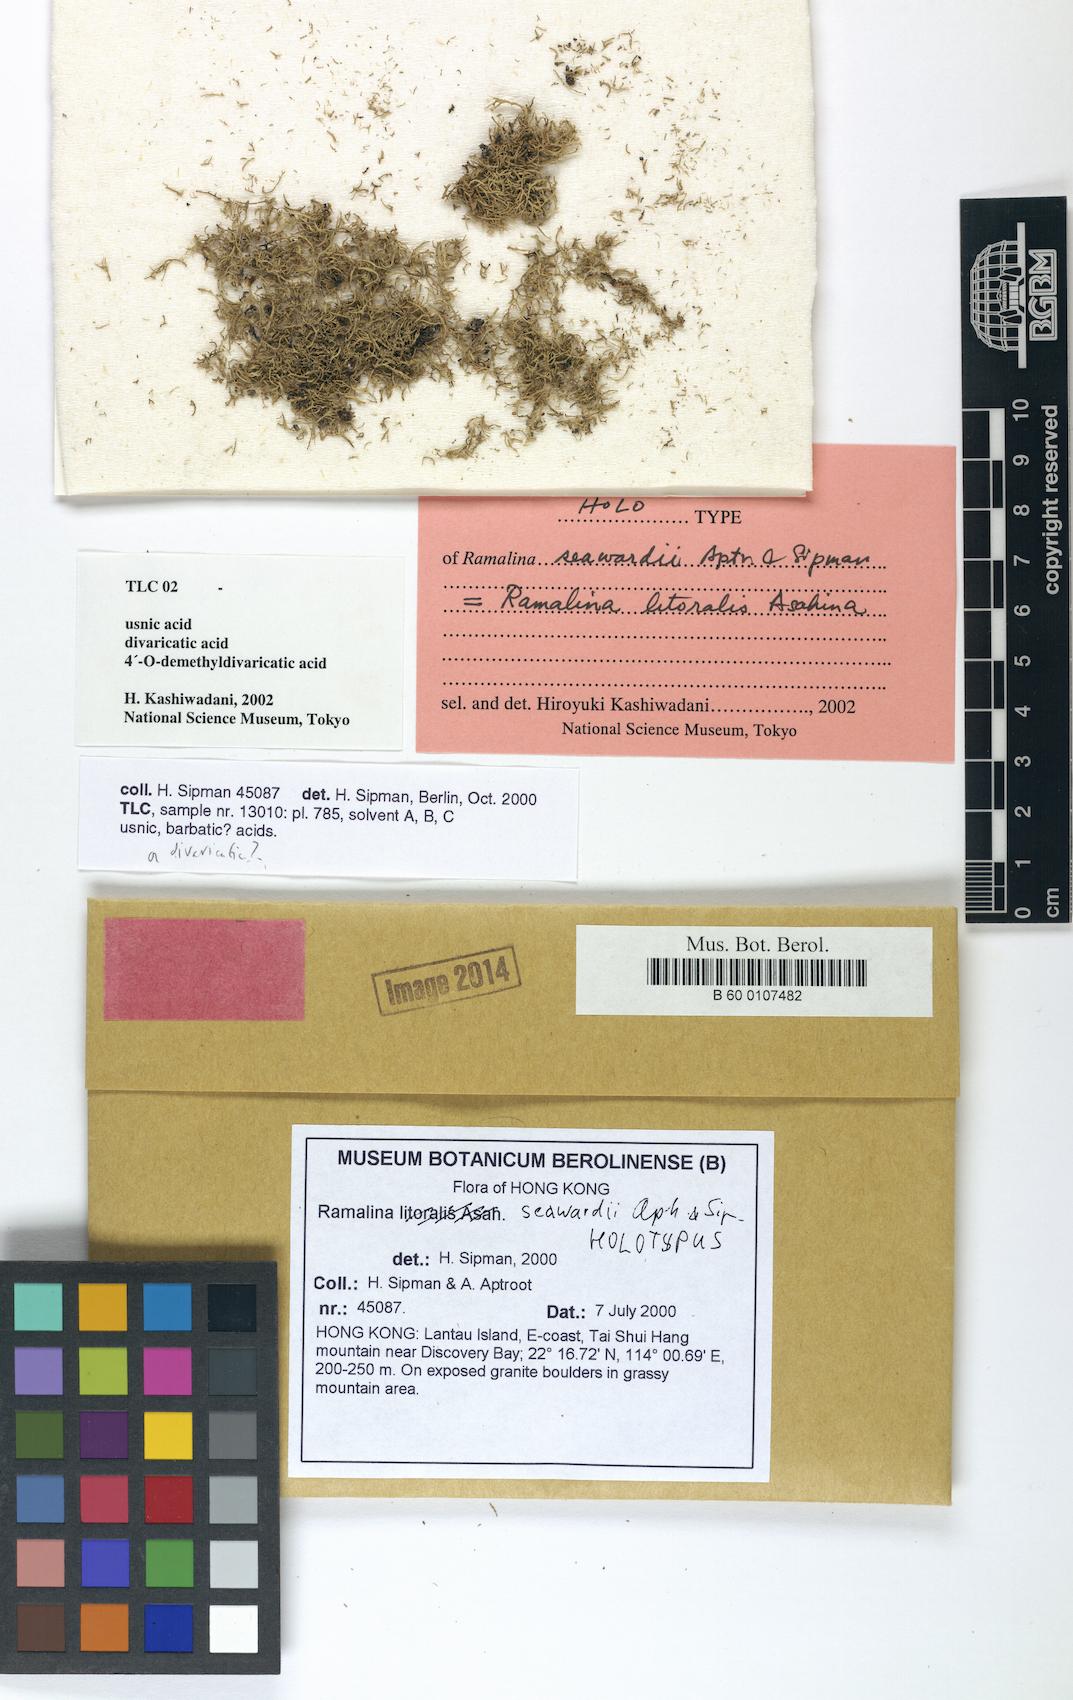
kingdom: Fungi
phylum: Ascomycota
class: Lecanoromycetes
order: Lecanorales
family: Ramalinaceae
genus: Ramalina
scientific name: Ramalina seawardii
